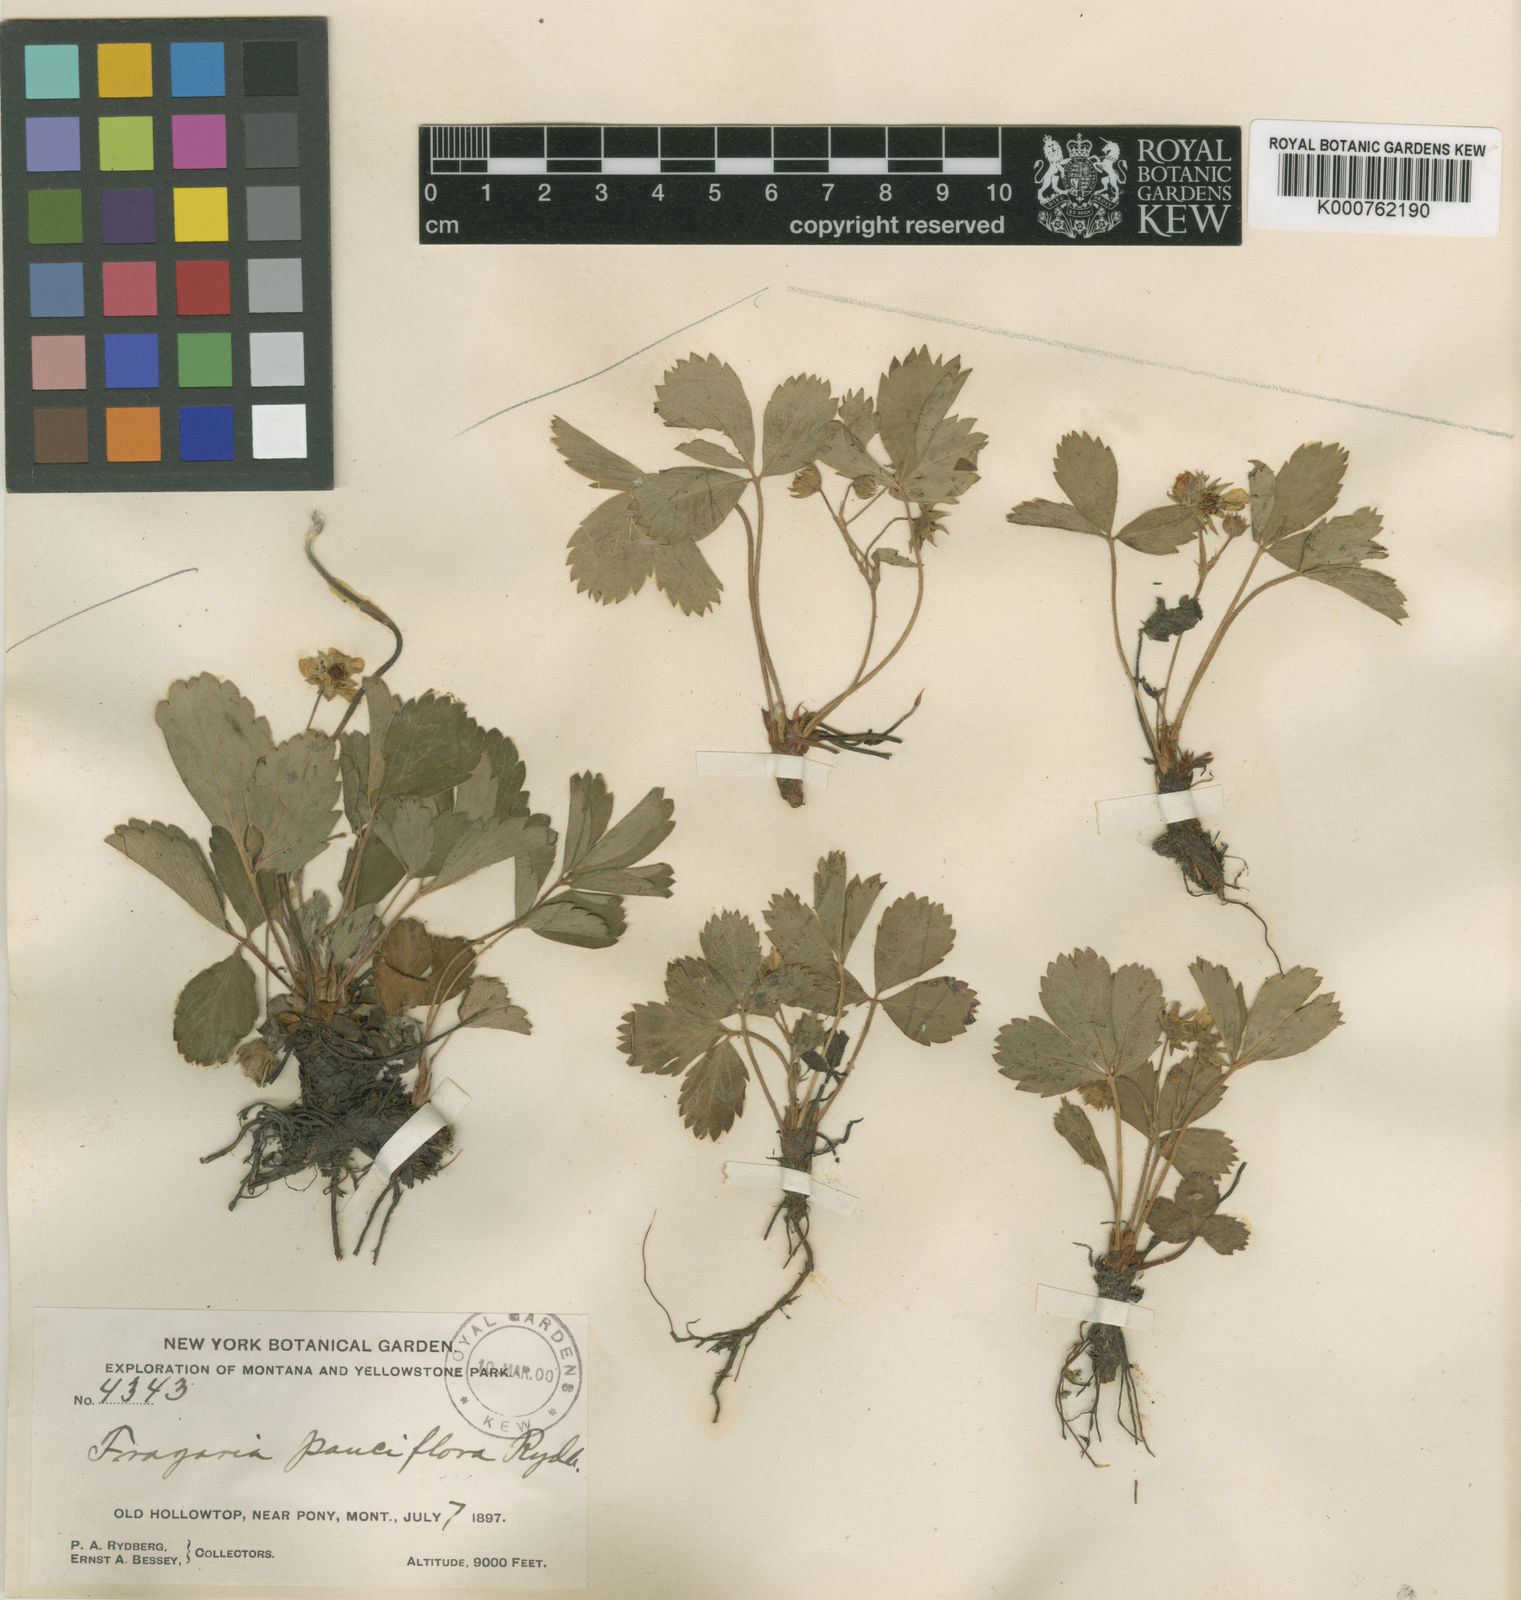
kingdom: Plantae
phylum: Tracheophyta
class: Magnoliopsida
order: Rosales
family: Rosaceae
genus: Fragaria
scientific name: Fragaria virginiana
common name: Thickleaved wild strawberry
